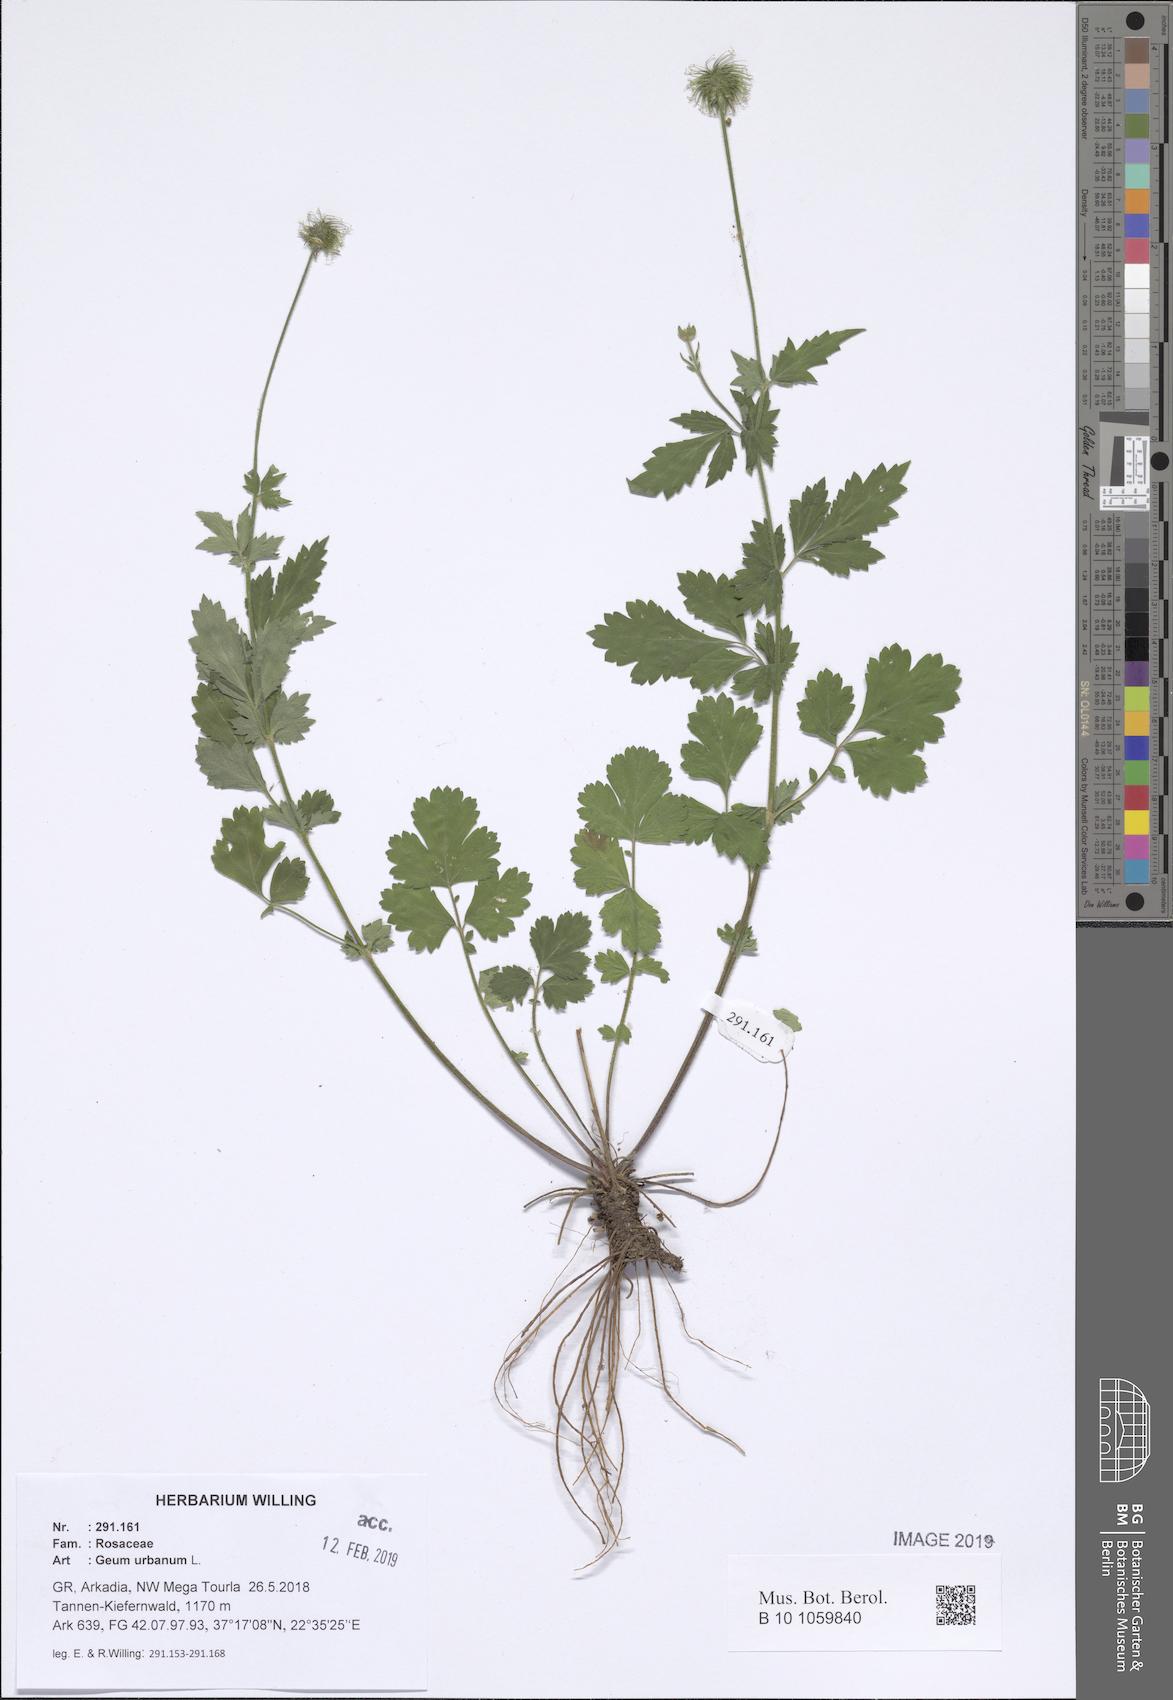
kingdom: Plantae
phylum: Tracheophyta
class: Magnoliopsida
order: Rosales
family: Rosaceae
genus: Geum
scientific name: Geum urbanum
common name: Wood avens
